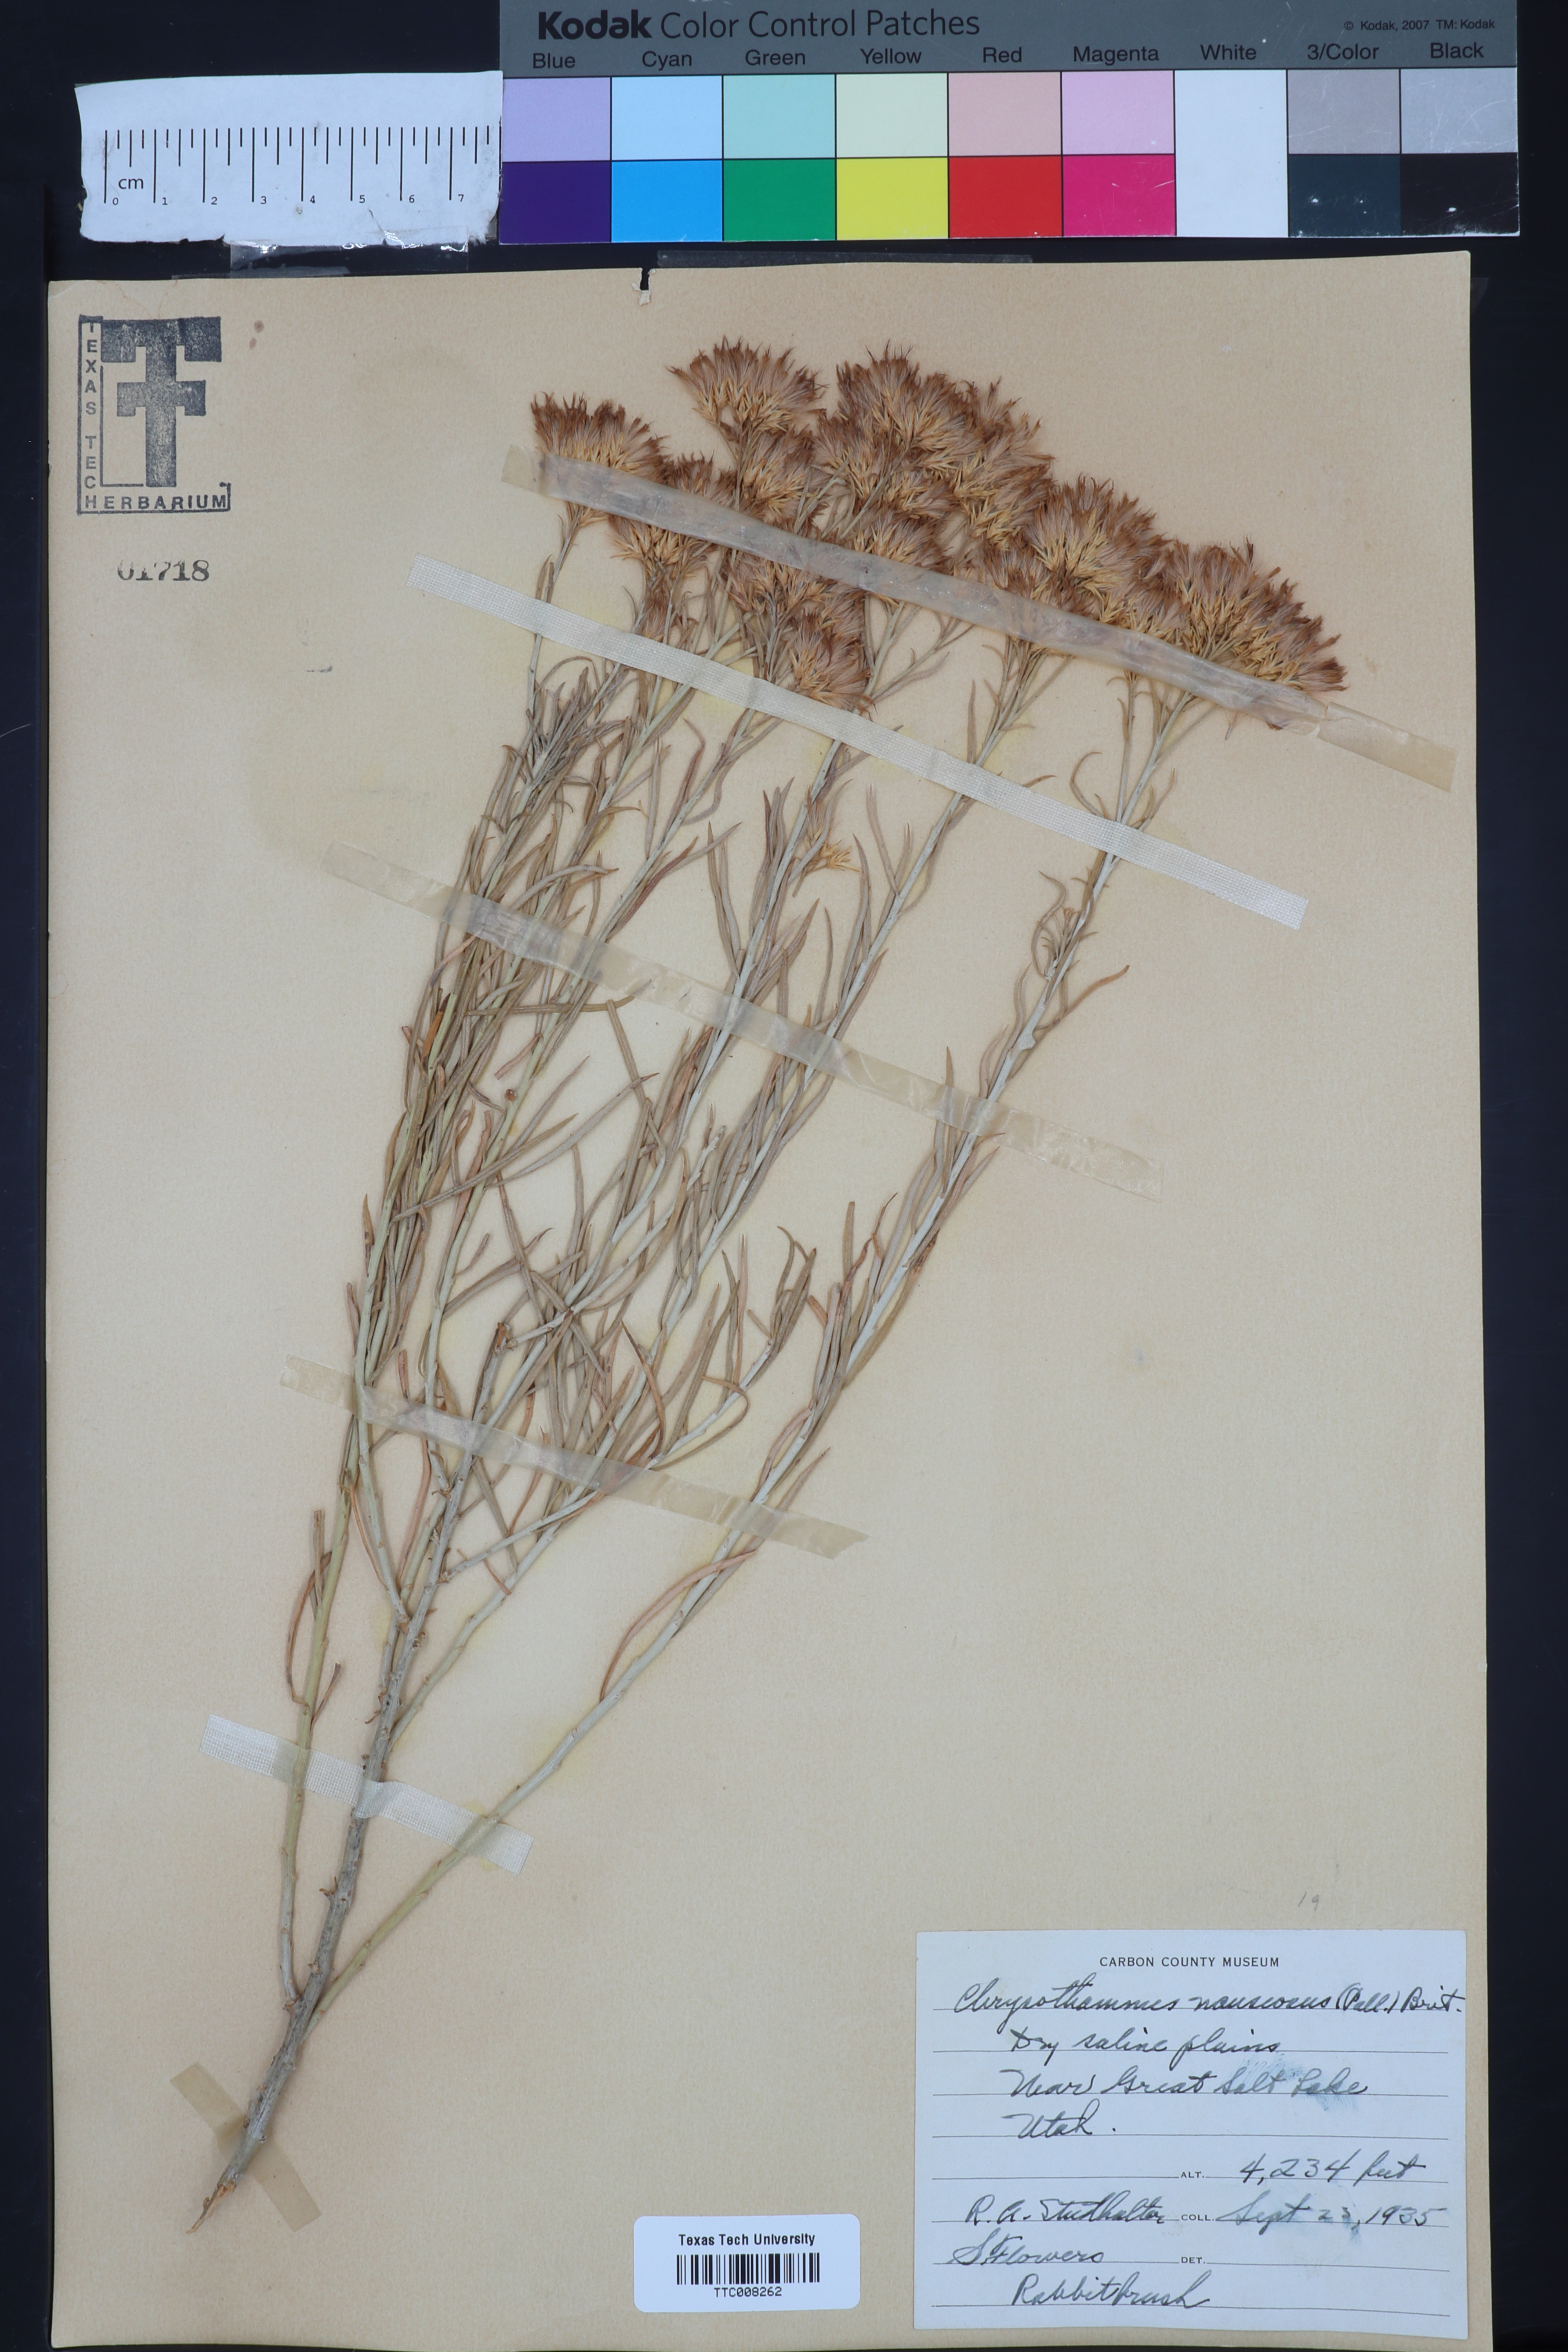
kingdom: Plantae
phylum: Tracheophyta
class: Magnoliopsida
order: Asterales
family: Asteraceae
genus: Ericameria
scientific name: Ericameria nauseosa
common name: Rubber rabbitbrush
